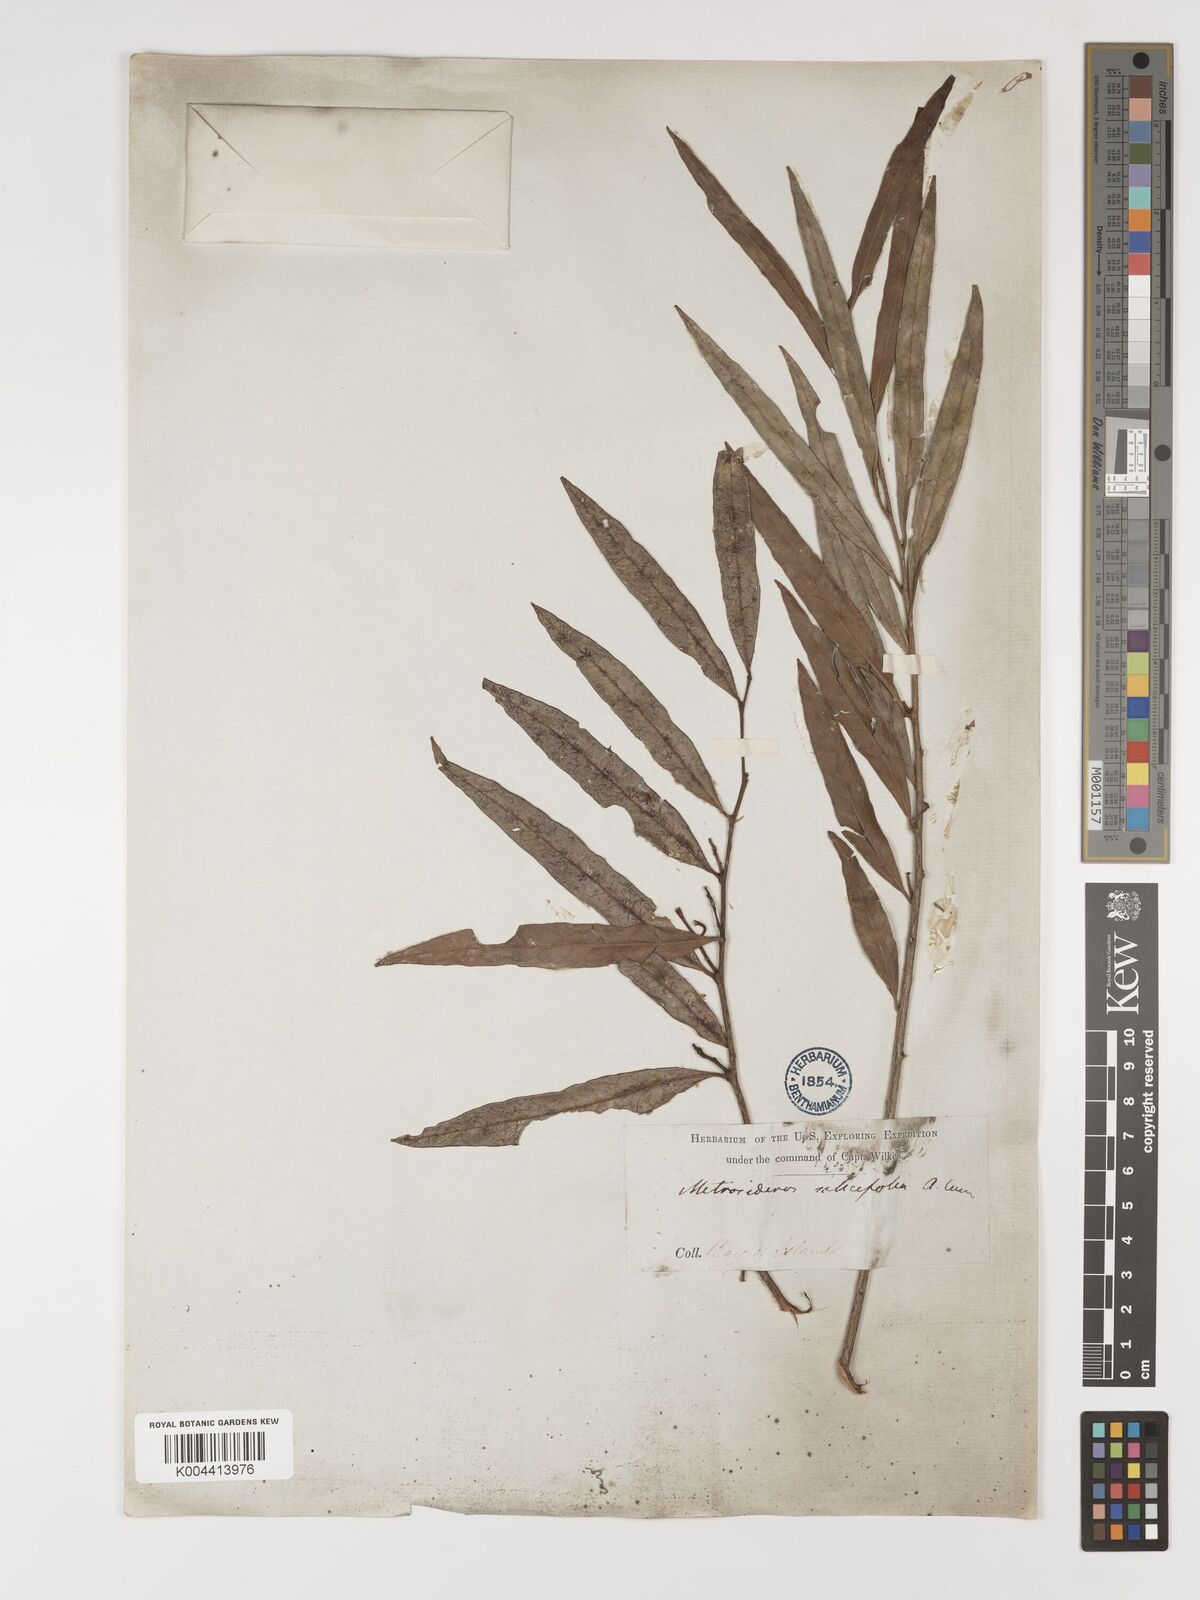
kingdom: Plantae
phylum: Tracheophyta
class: Magnoliopsida
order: Myrtales
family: Myrtaceae
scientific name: Myrtaceae
